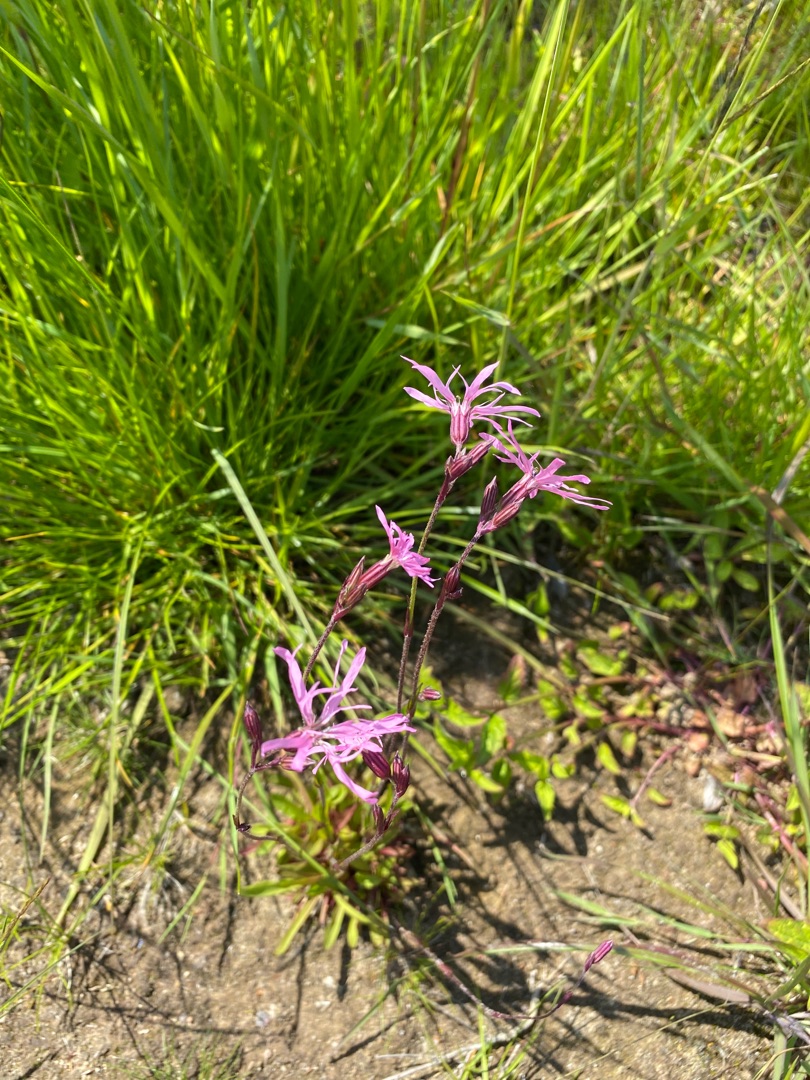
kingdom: Plantae
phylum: Tracheophyta
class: Magnoliopsida
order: Caryophyllales
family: Caryophyllaceae
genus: Silene
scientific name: Silene flos-cuculi
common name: Trævlekrone
